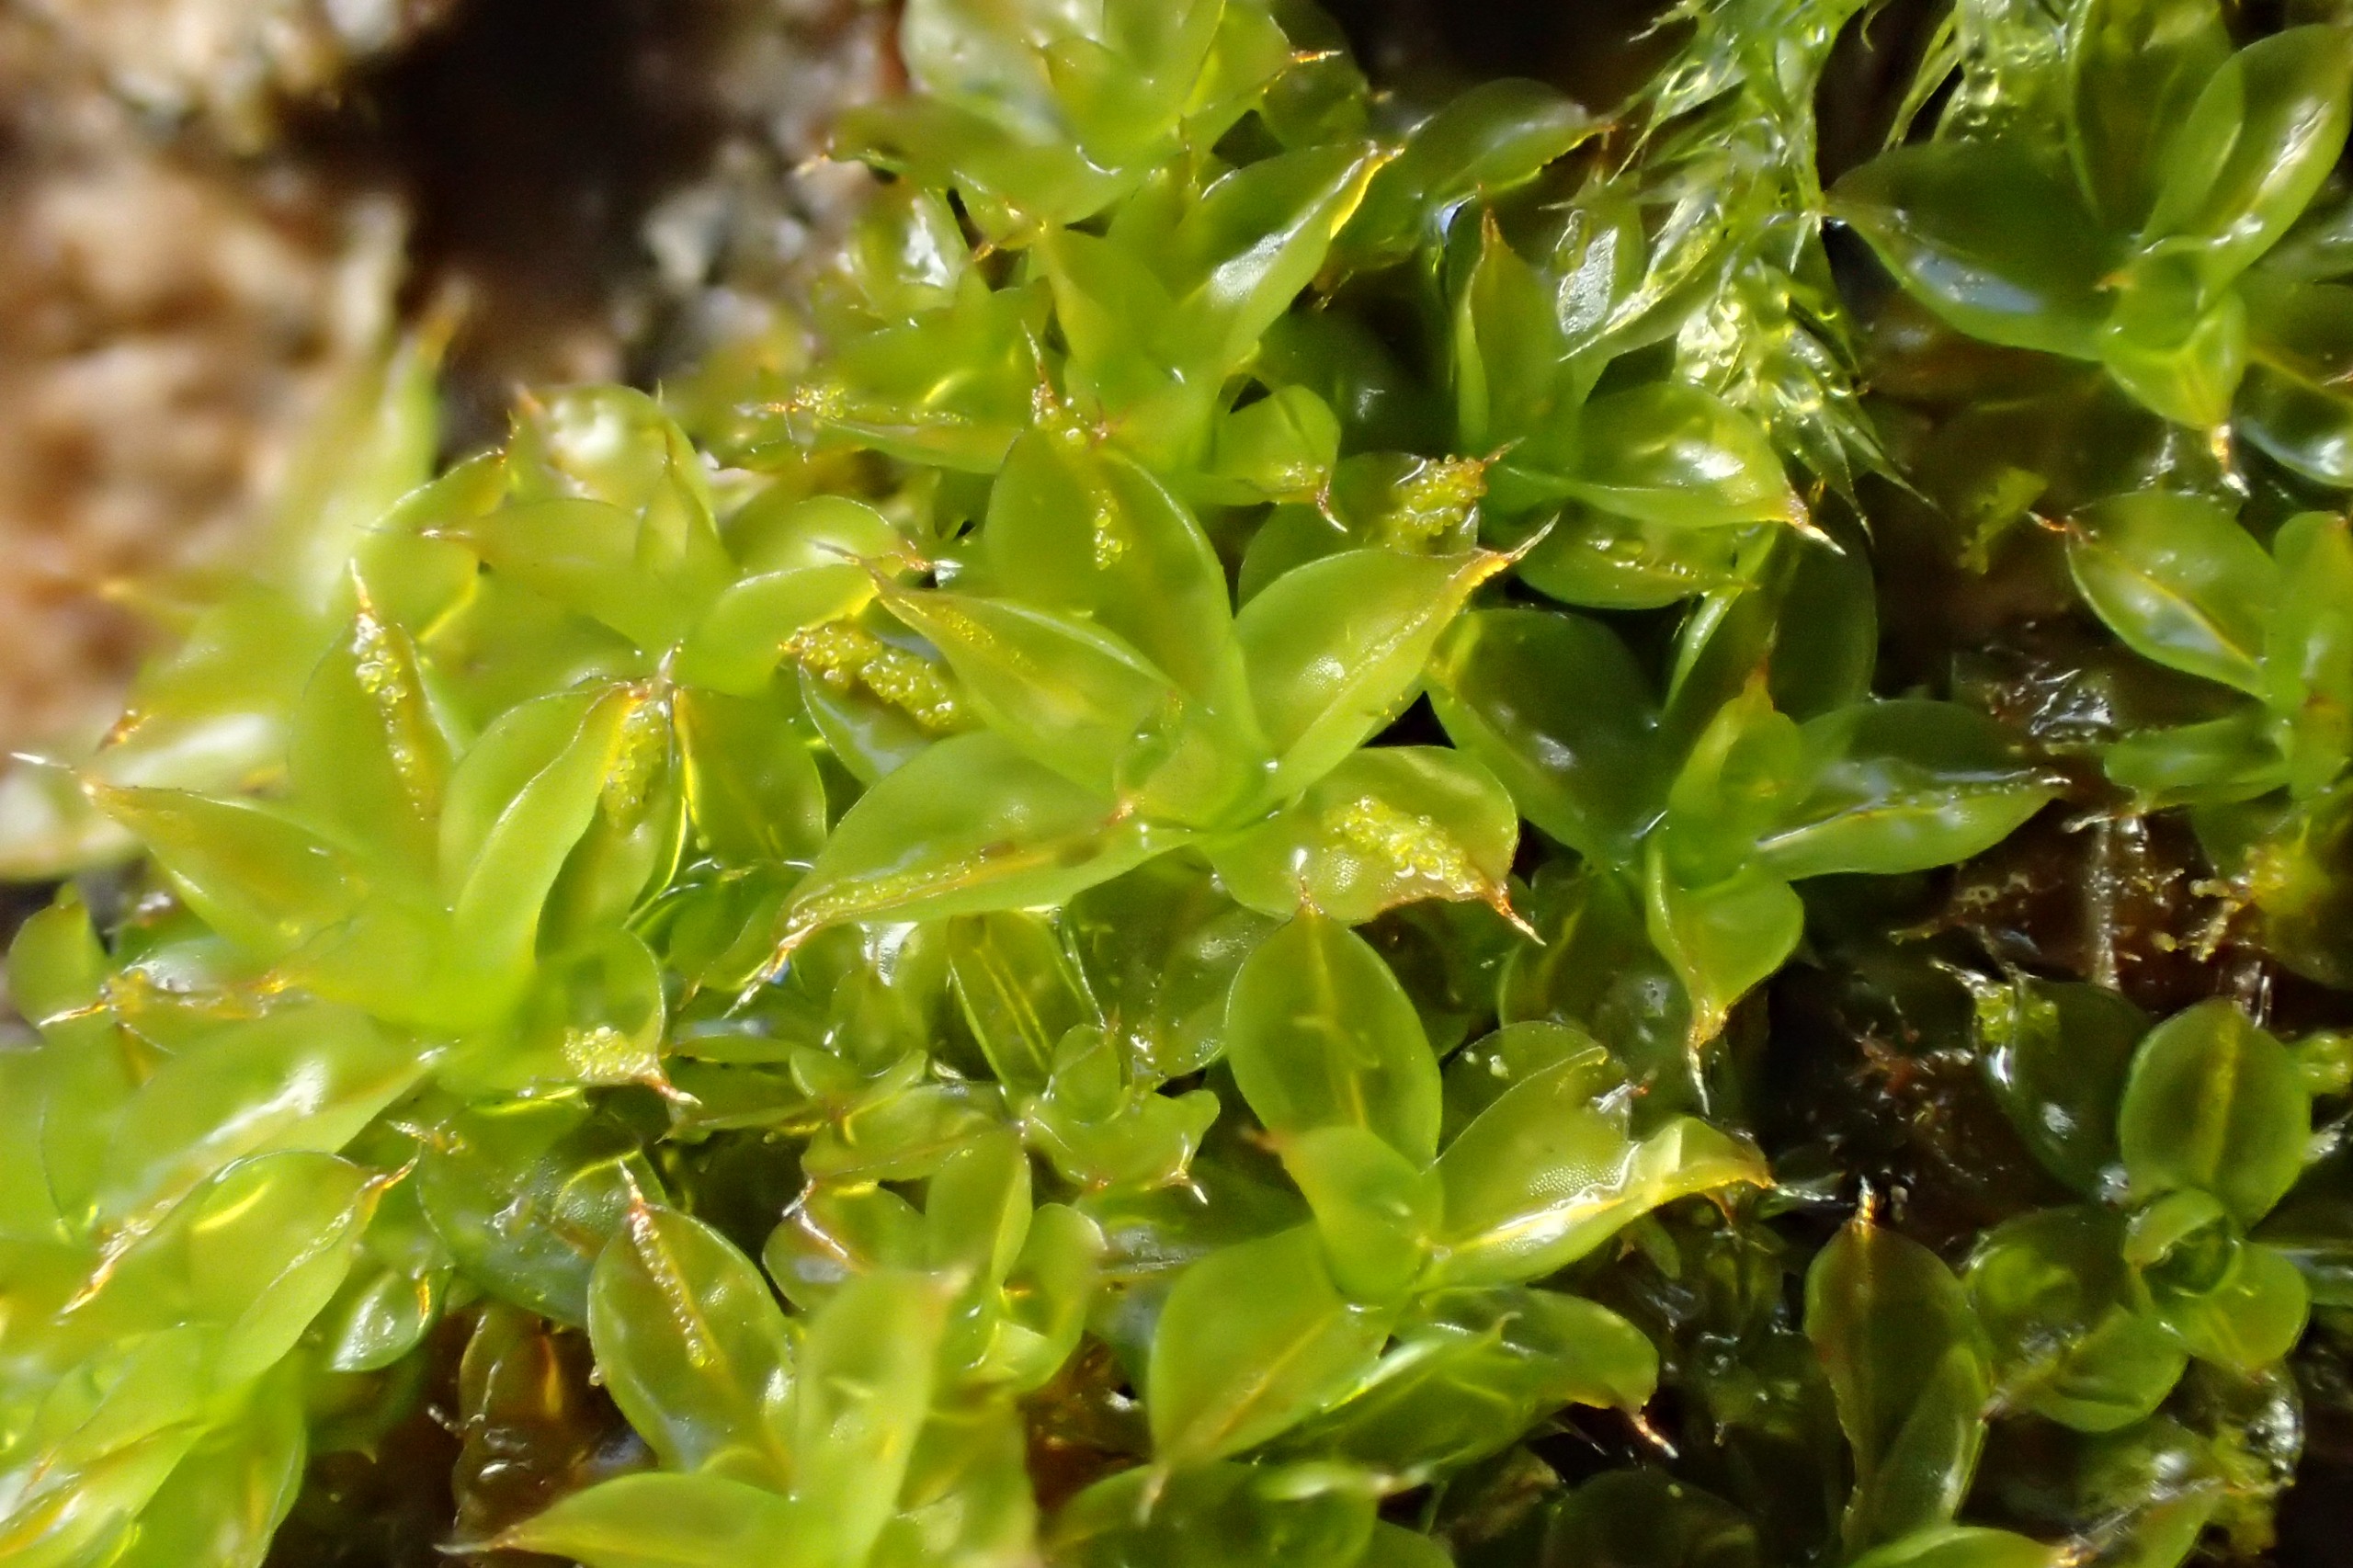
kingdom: Plantae
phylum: Bryophyta
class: Bryopsida
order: Pottiales
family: Pottiaceae
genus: Syntrichia
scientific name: Syntrichia papillosa
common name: Bark-hårstjerne
